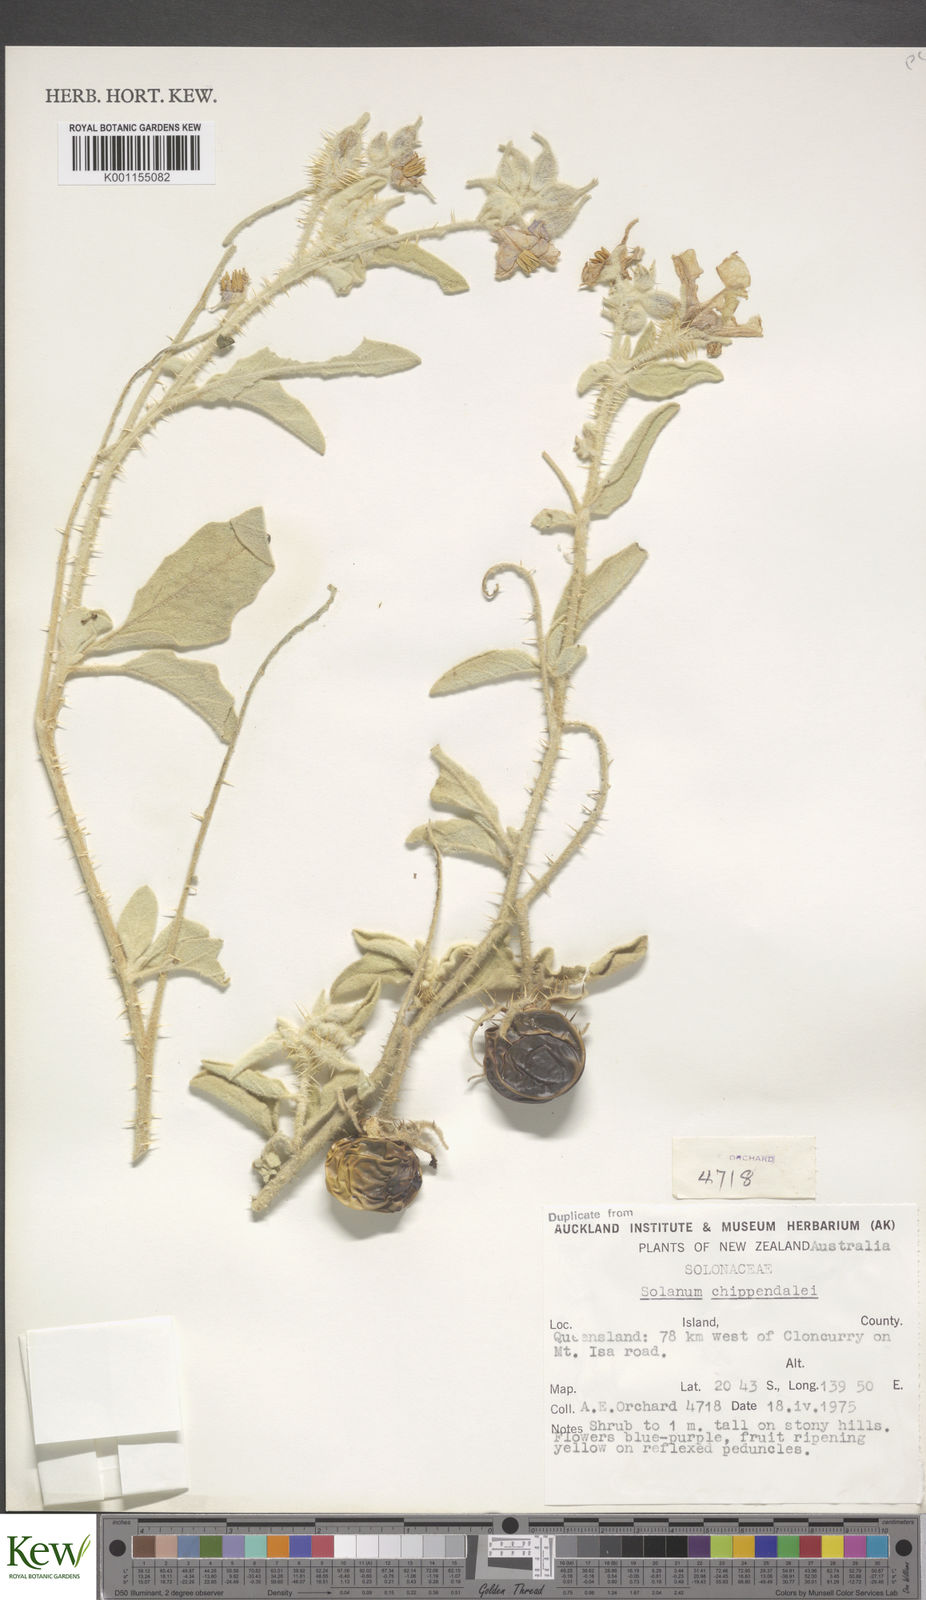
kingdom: Plantae
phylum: Tracheophyta
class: Magnoliopsida
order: Solanales
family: Solanaceae
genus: Solanum
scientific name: Solanum chippendalei
